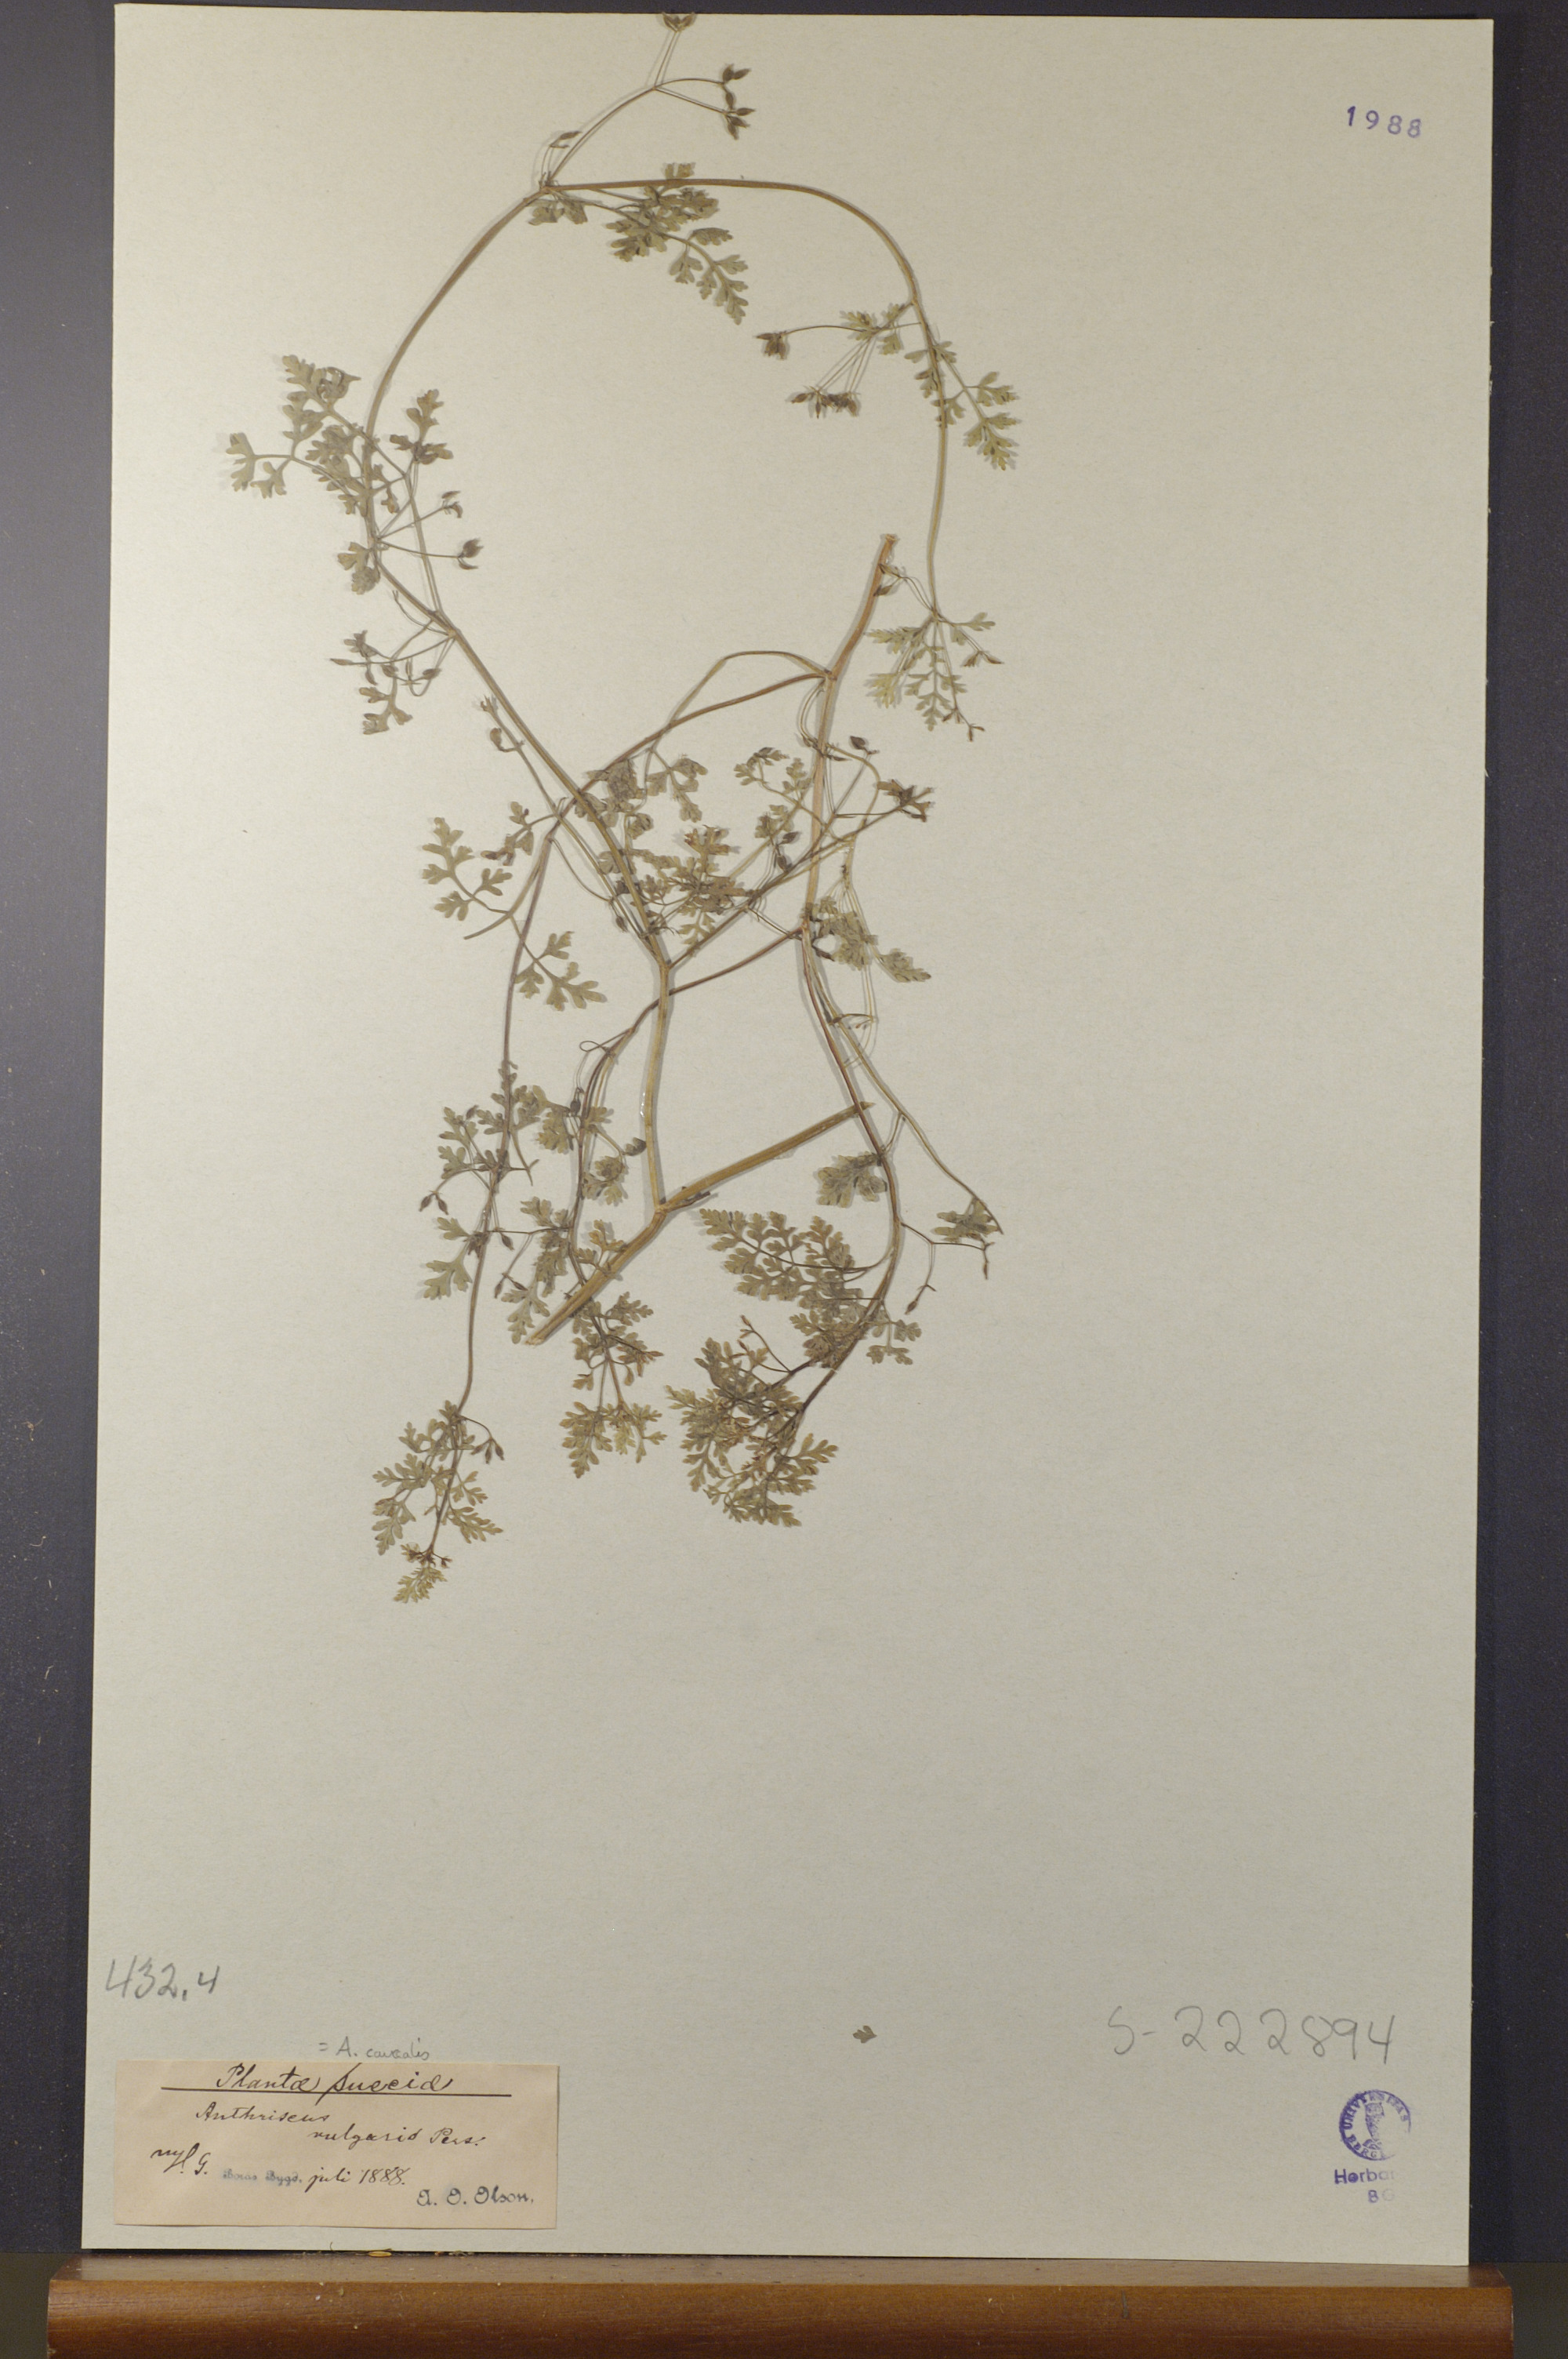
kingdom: Plantae
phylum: Tracheophyta
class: Magnoliopsida
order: Apiales
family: Apiaceae
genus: Anthriscus
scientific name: Anthriscus caucalis
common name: Bur chervil
